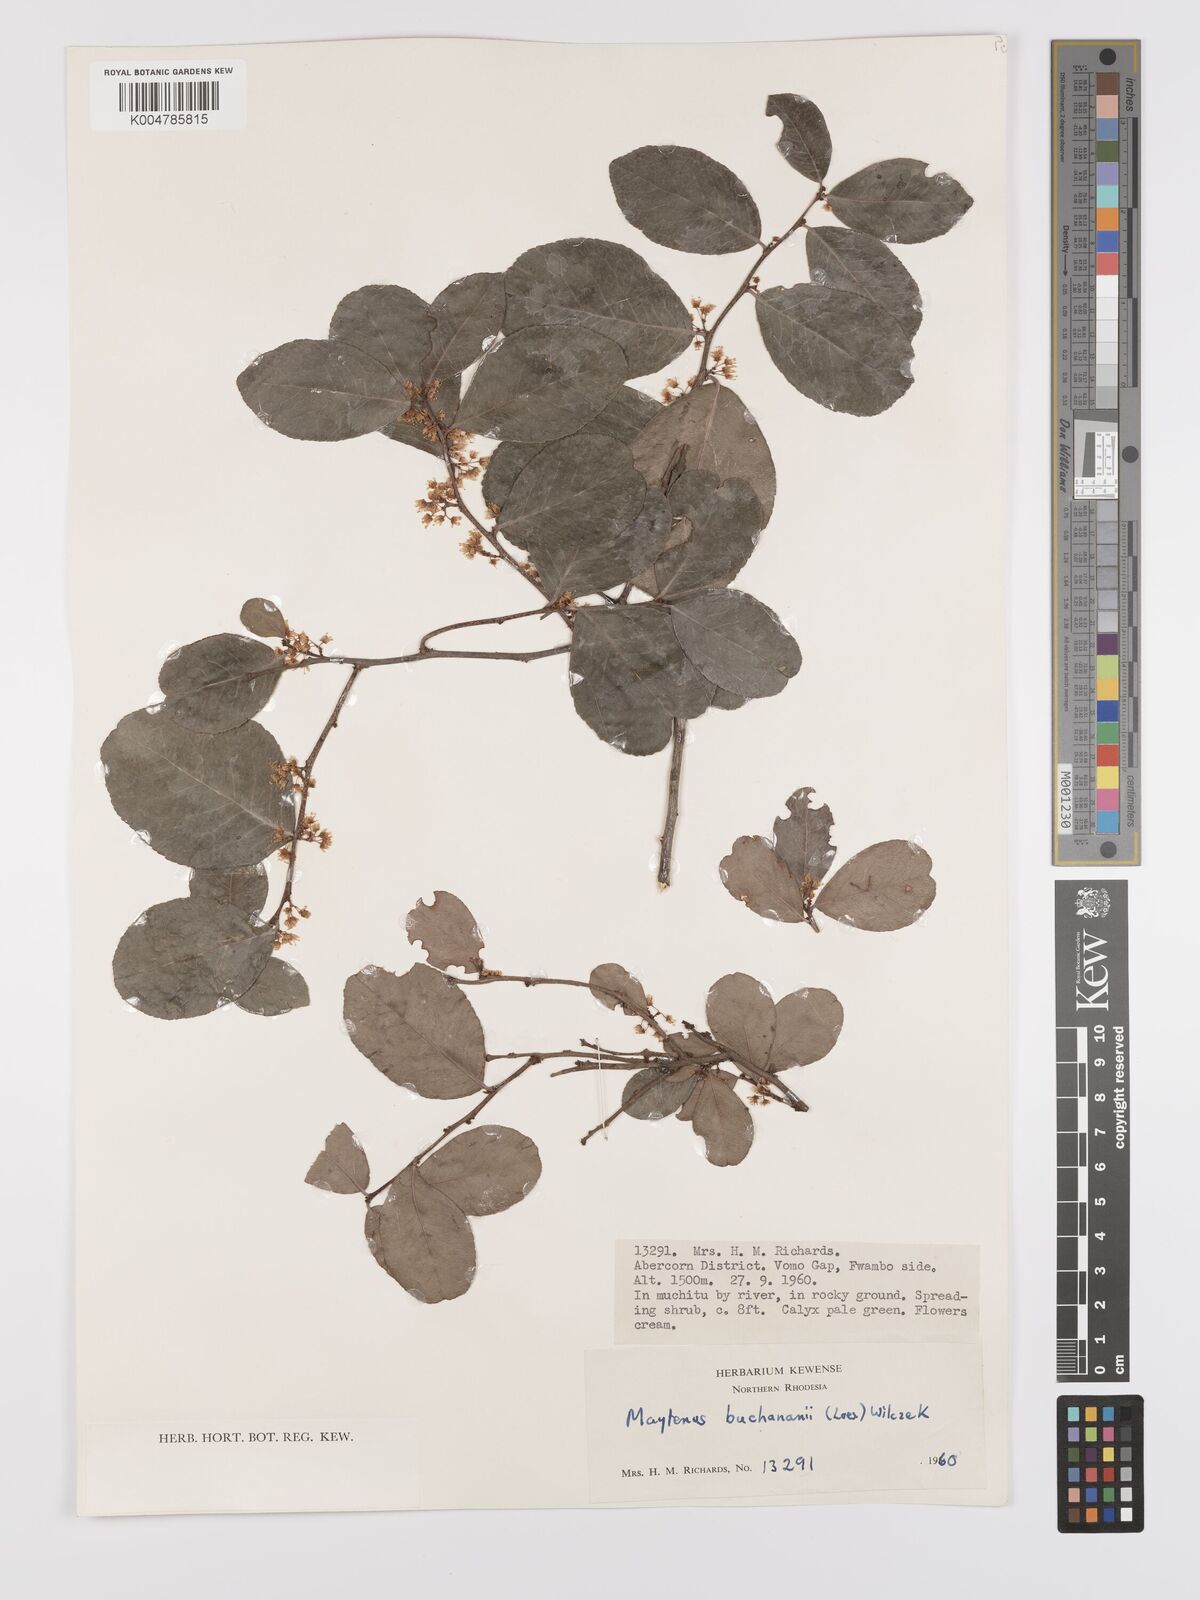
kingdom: Plantae
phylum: Tracheophyta
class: Magnoliopsida
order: Celastrales
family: Celastraceae
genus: Gymnosporia
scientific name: Gymnosporia buchananii
